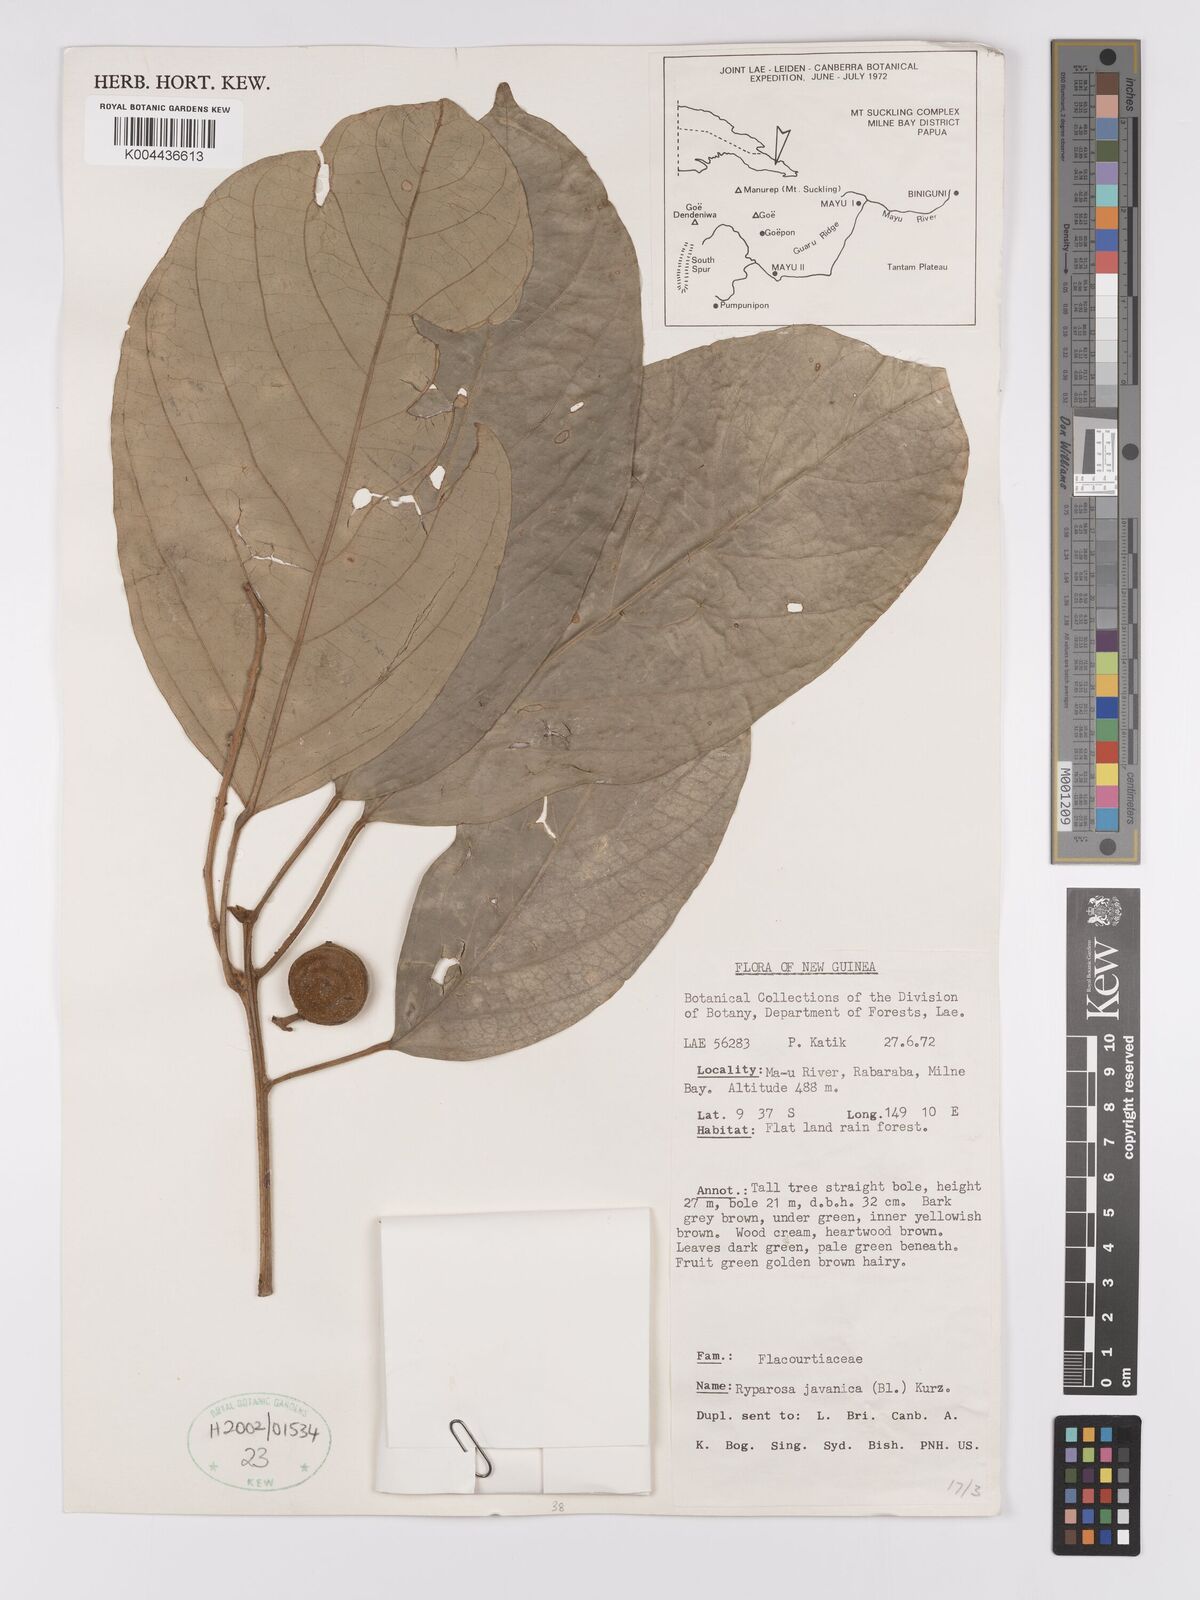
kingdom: Plantae
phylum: Tracheophyta
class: Magnoliopsida
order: Malpighiales
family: Achariaceae
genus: Ryparosa
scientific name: Ryparosa calotricha
